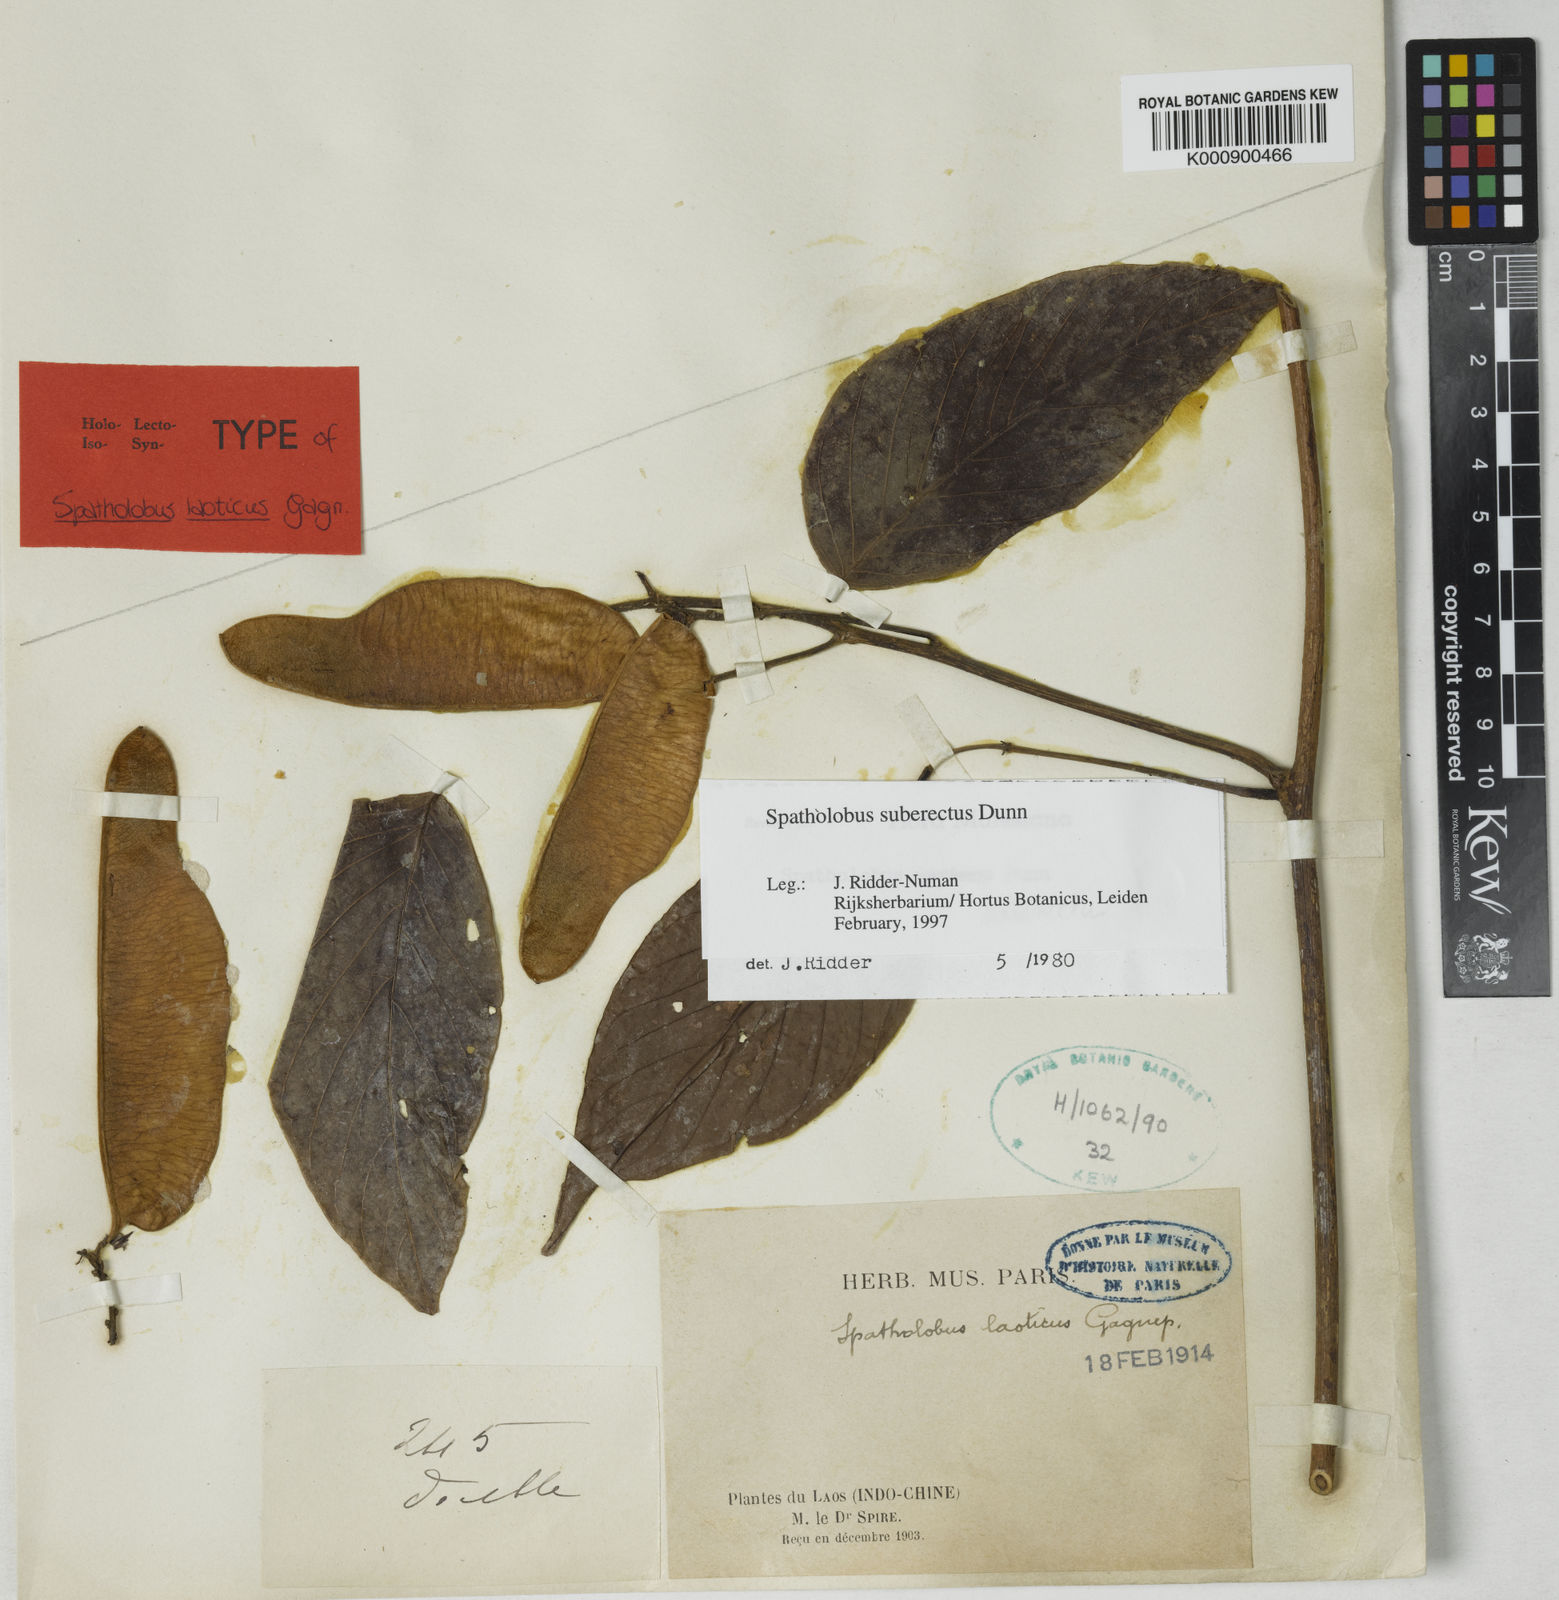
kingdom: Plantae
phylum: Tracheophyta
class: Magnoliopsida
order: Fabales
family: Fabaceae
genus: Spatholobus
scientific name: Spatholobus suberectus
